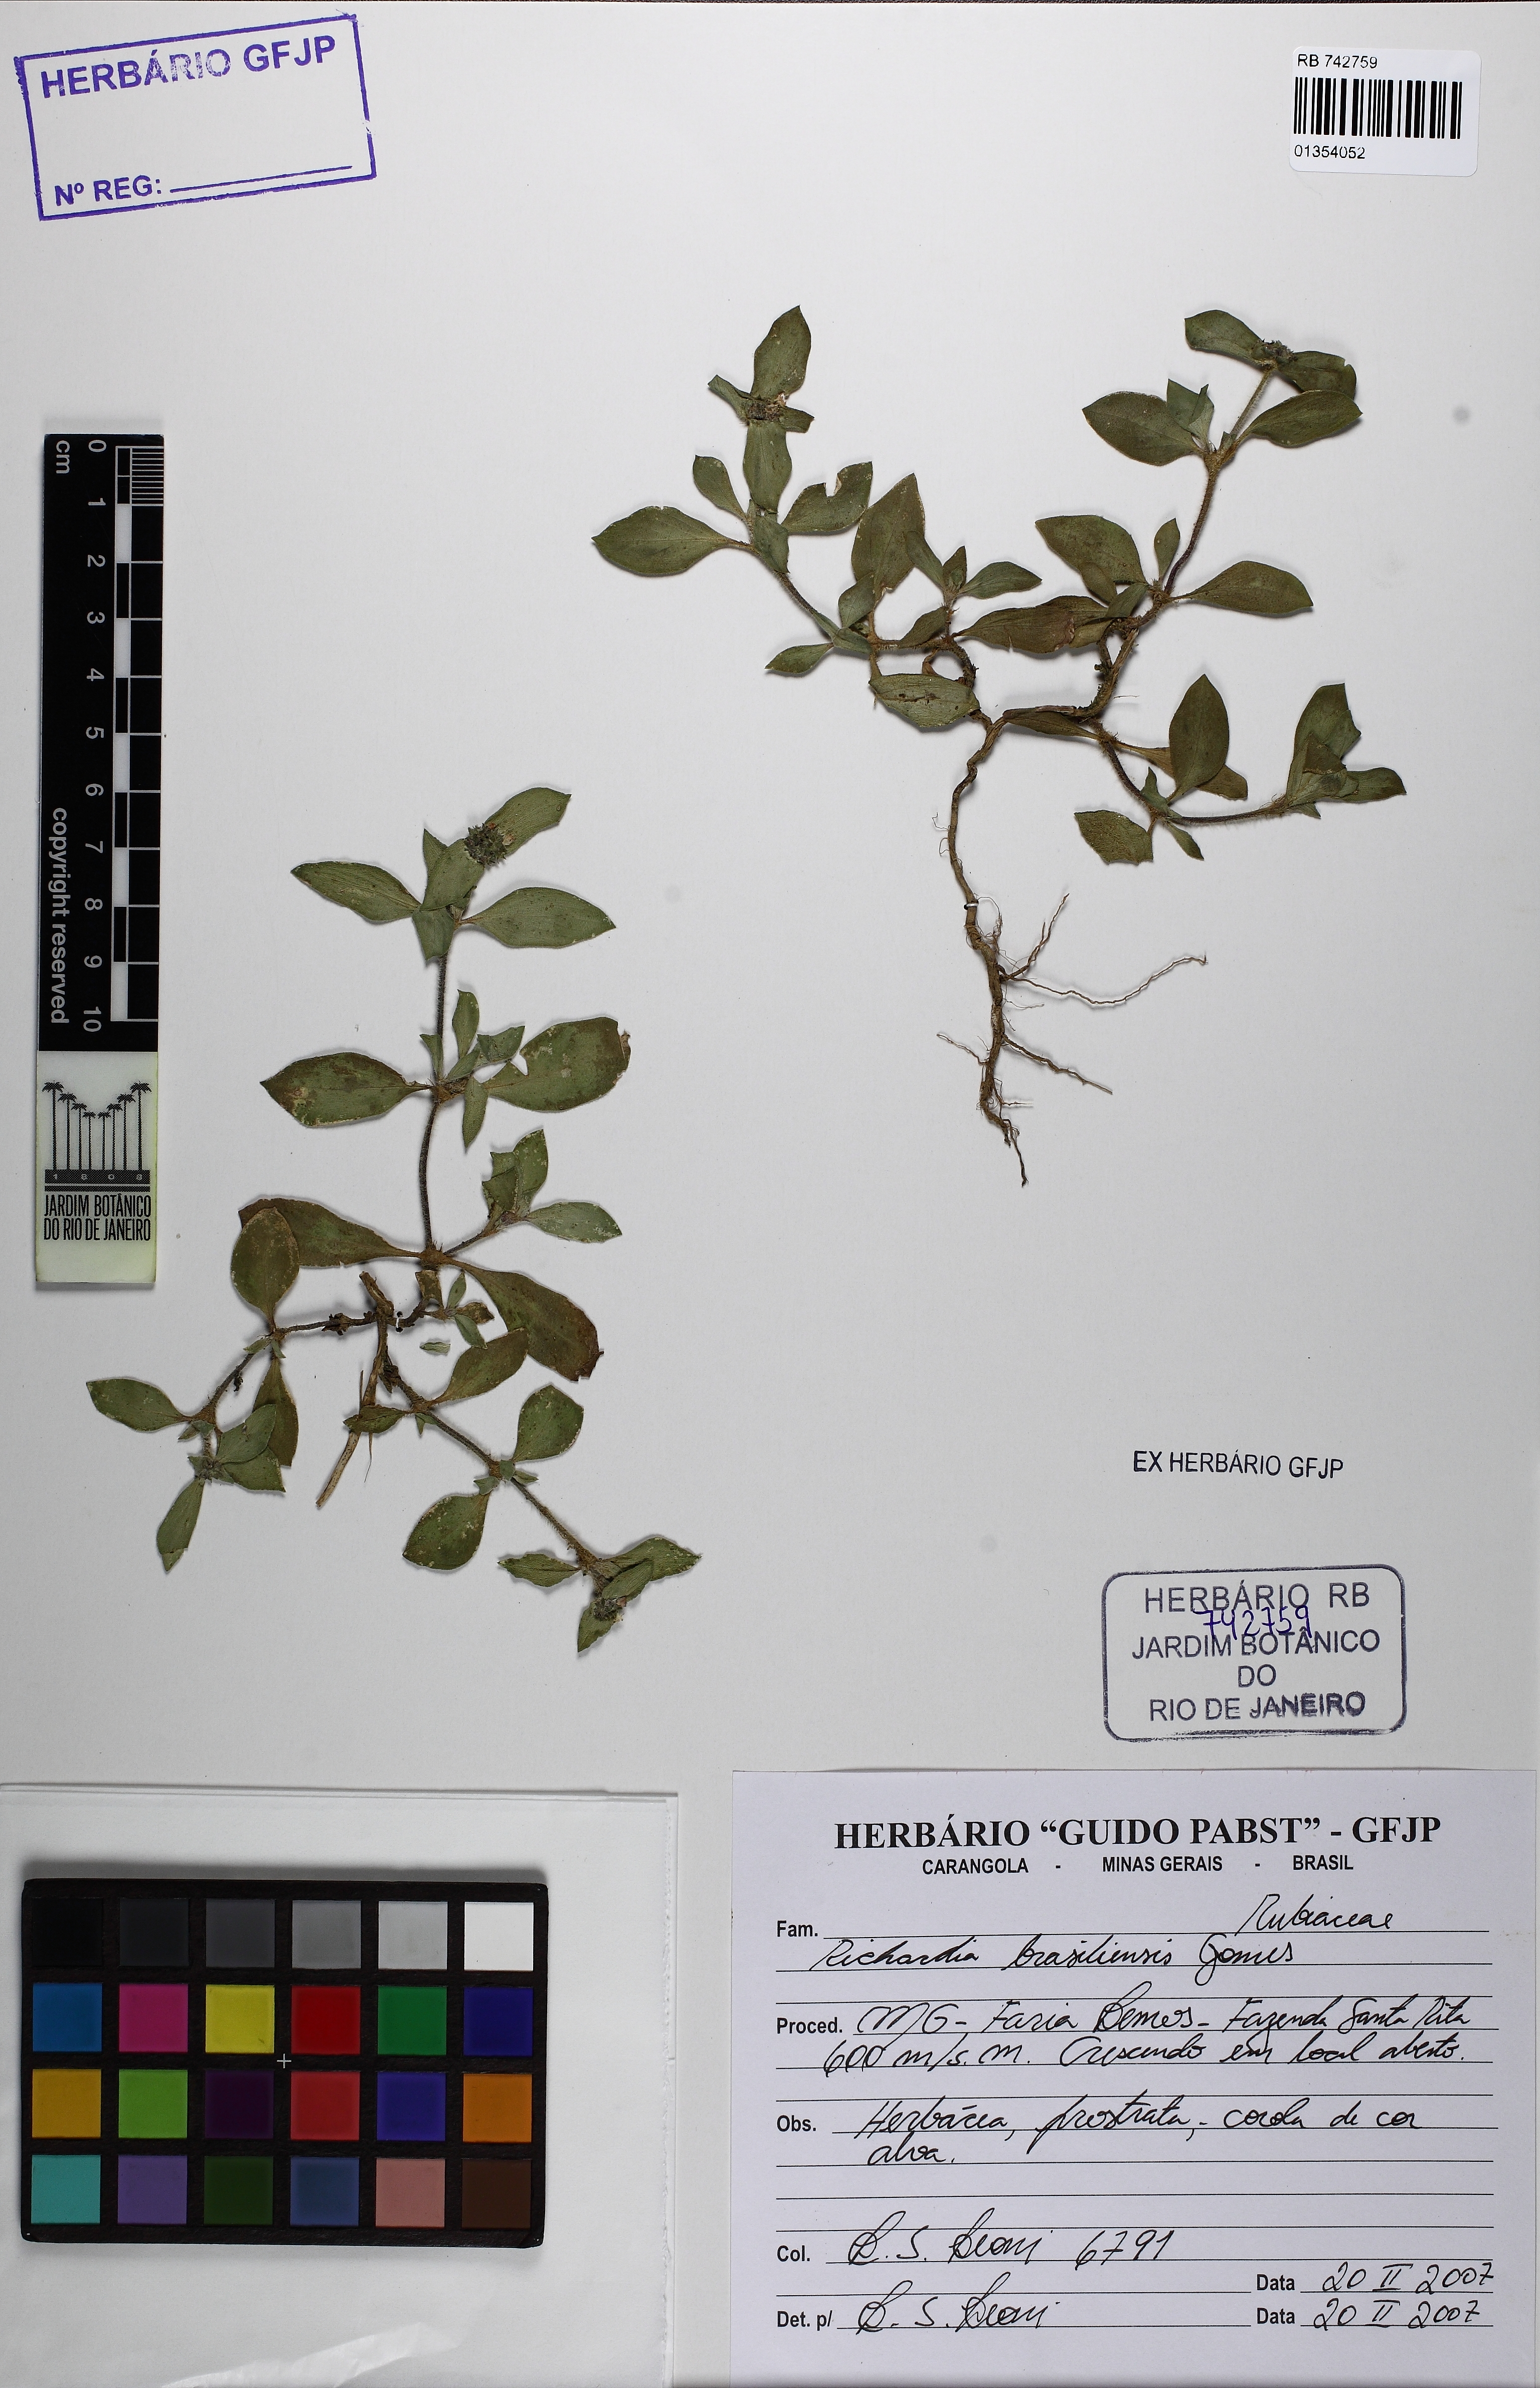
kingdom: Plantae
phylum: Tracheophyta
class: Magnoliopsida
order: Gentianales
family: Rubiaceae
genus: Richardia
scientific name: Richardia brasiliensis
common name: Tropical mexican clover
